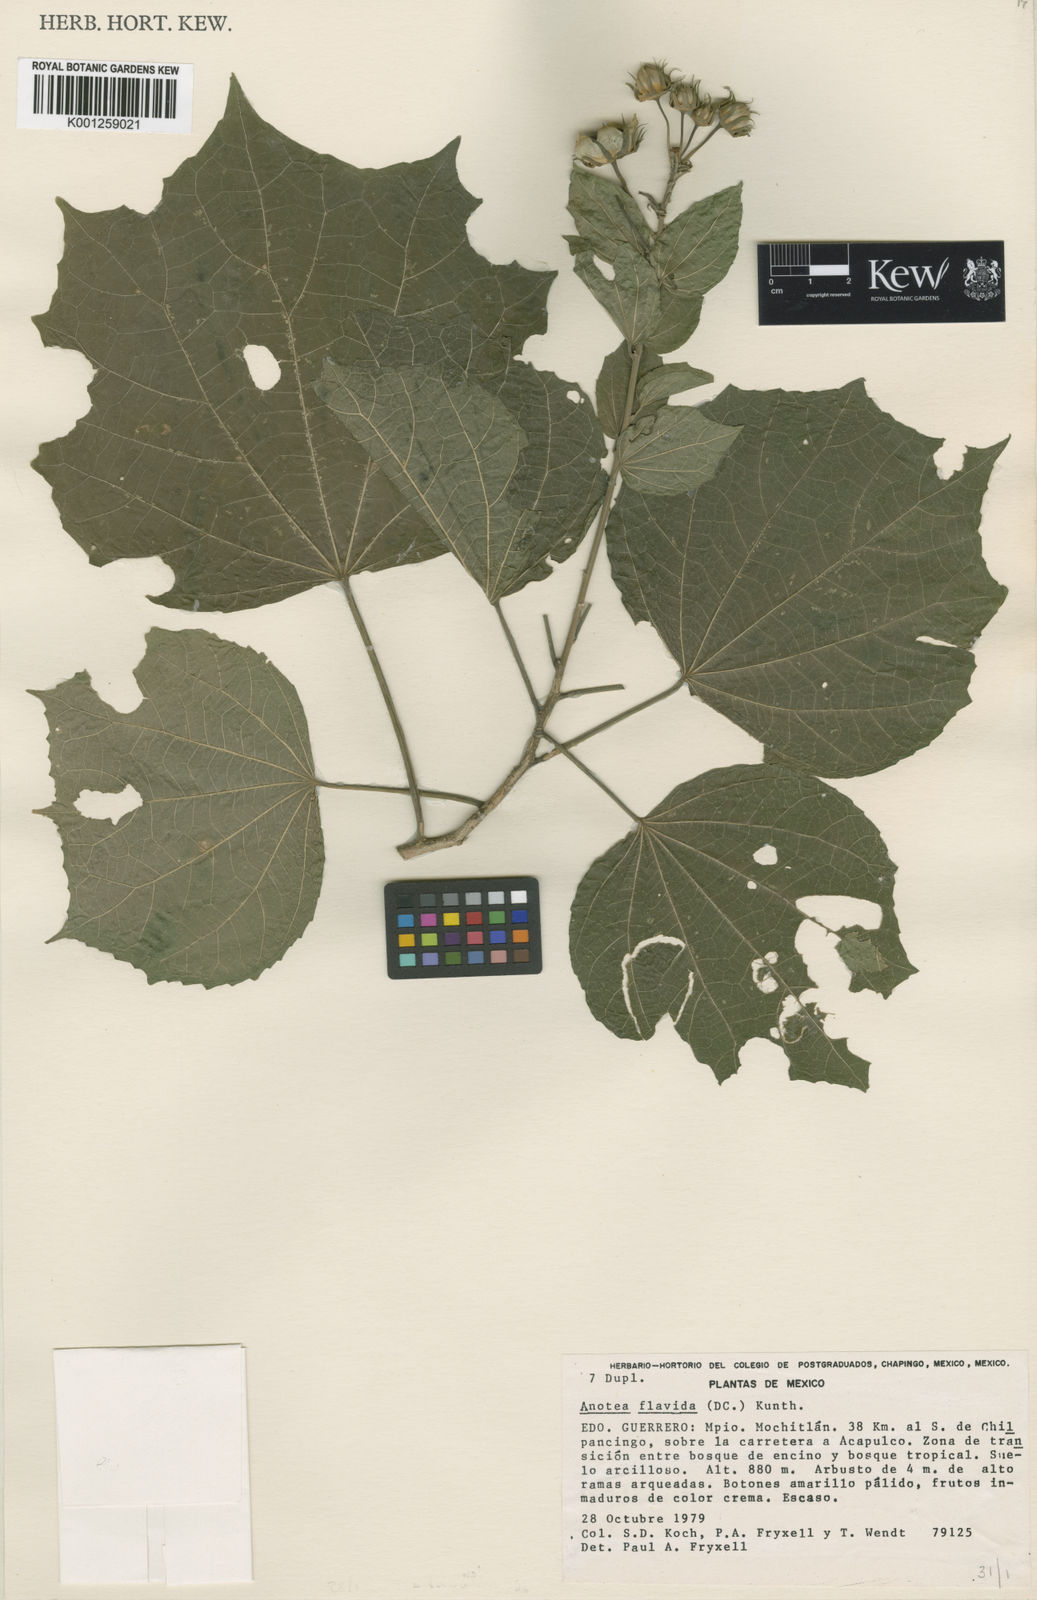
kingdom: Plantae
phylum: Tracheophyta
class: Magnoliopsida
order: Malvales
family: Malvaceae
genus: Anotea
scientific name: Anotea flavida
